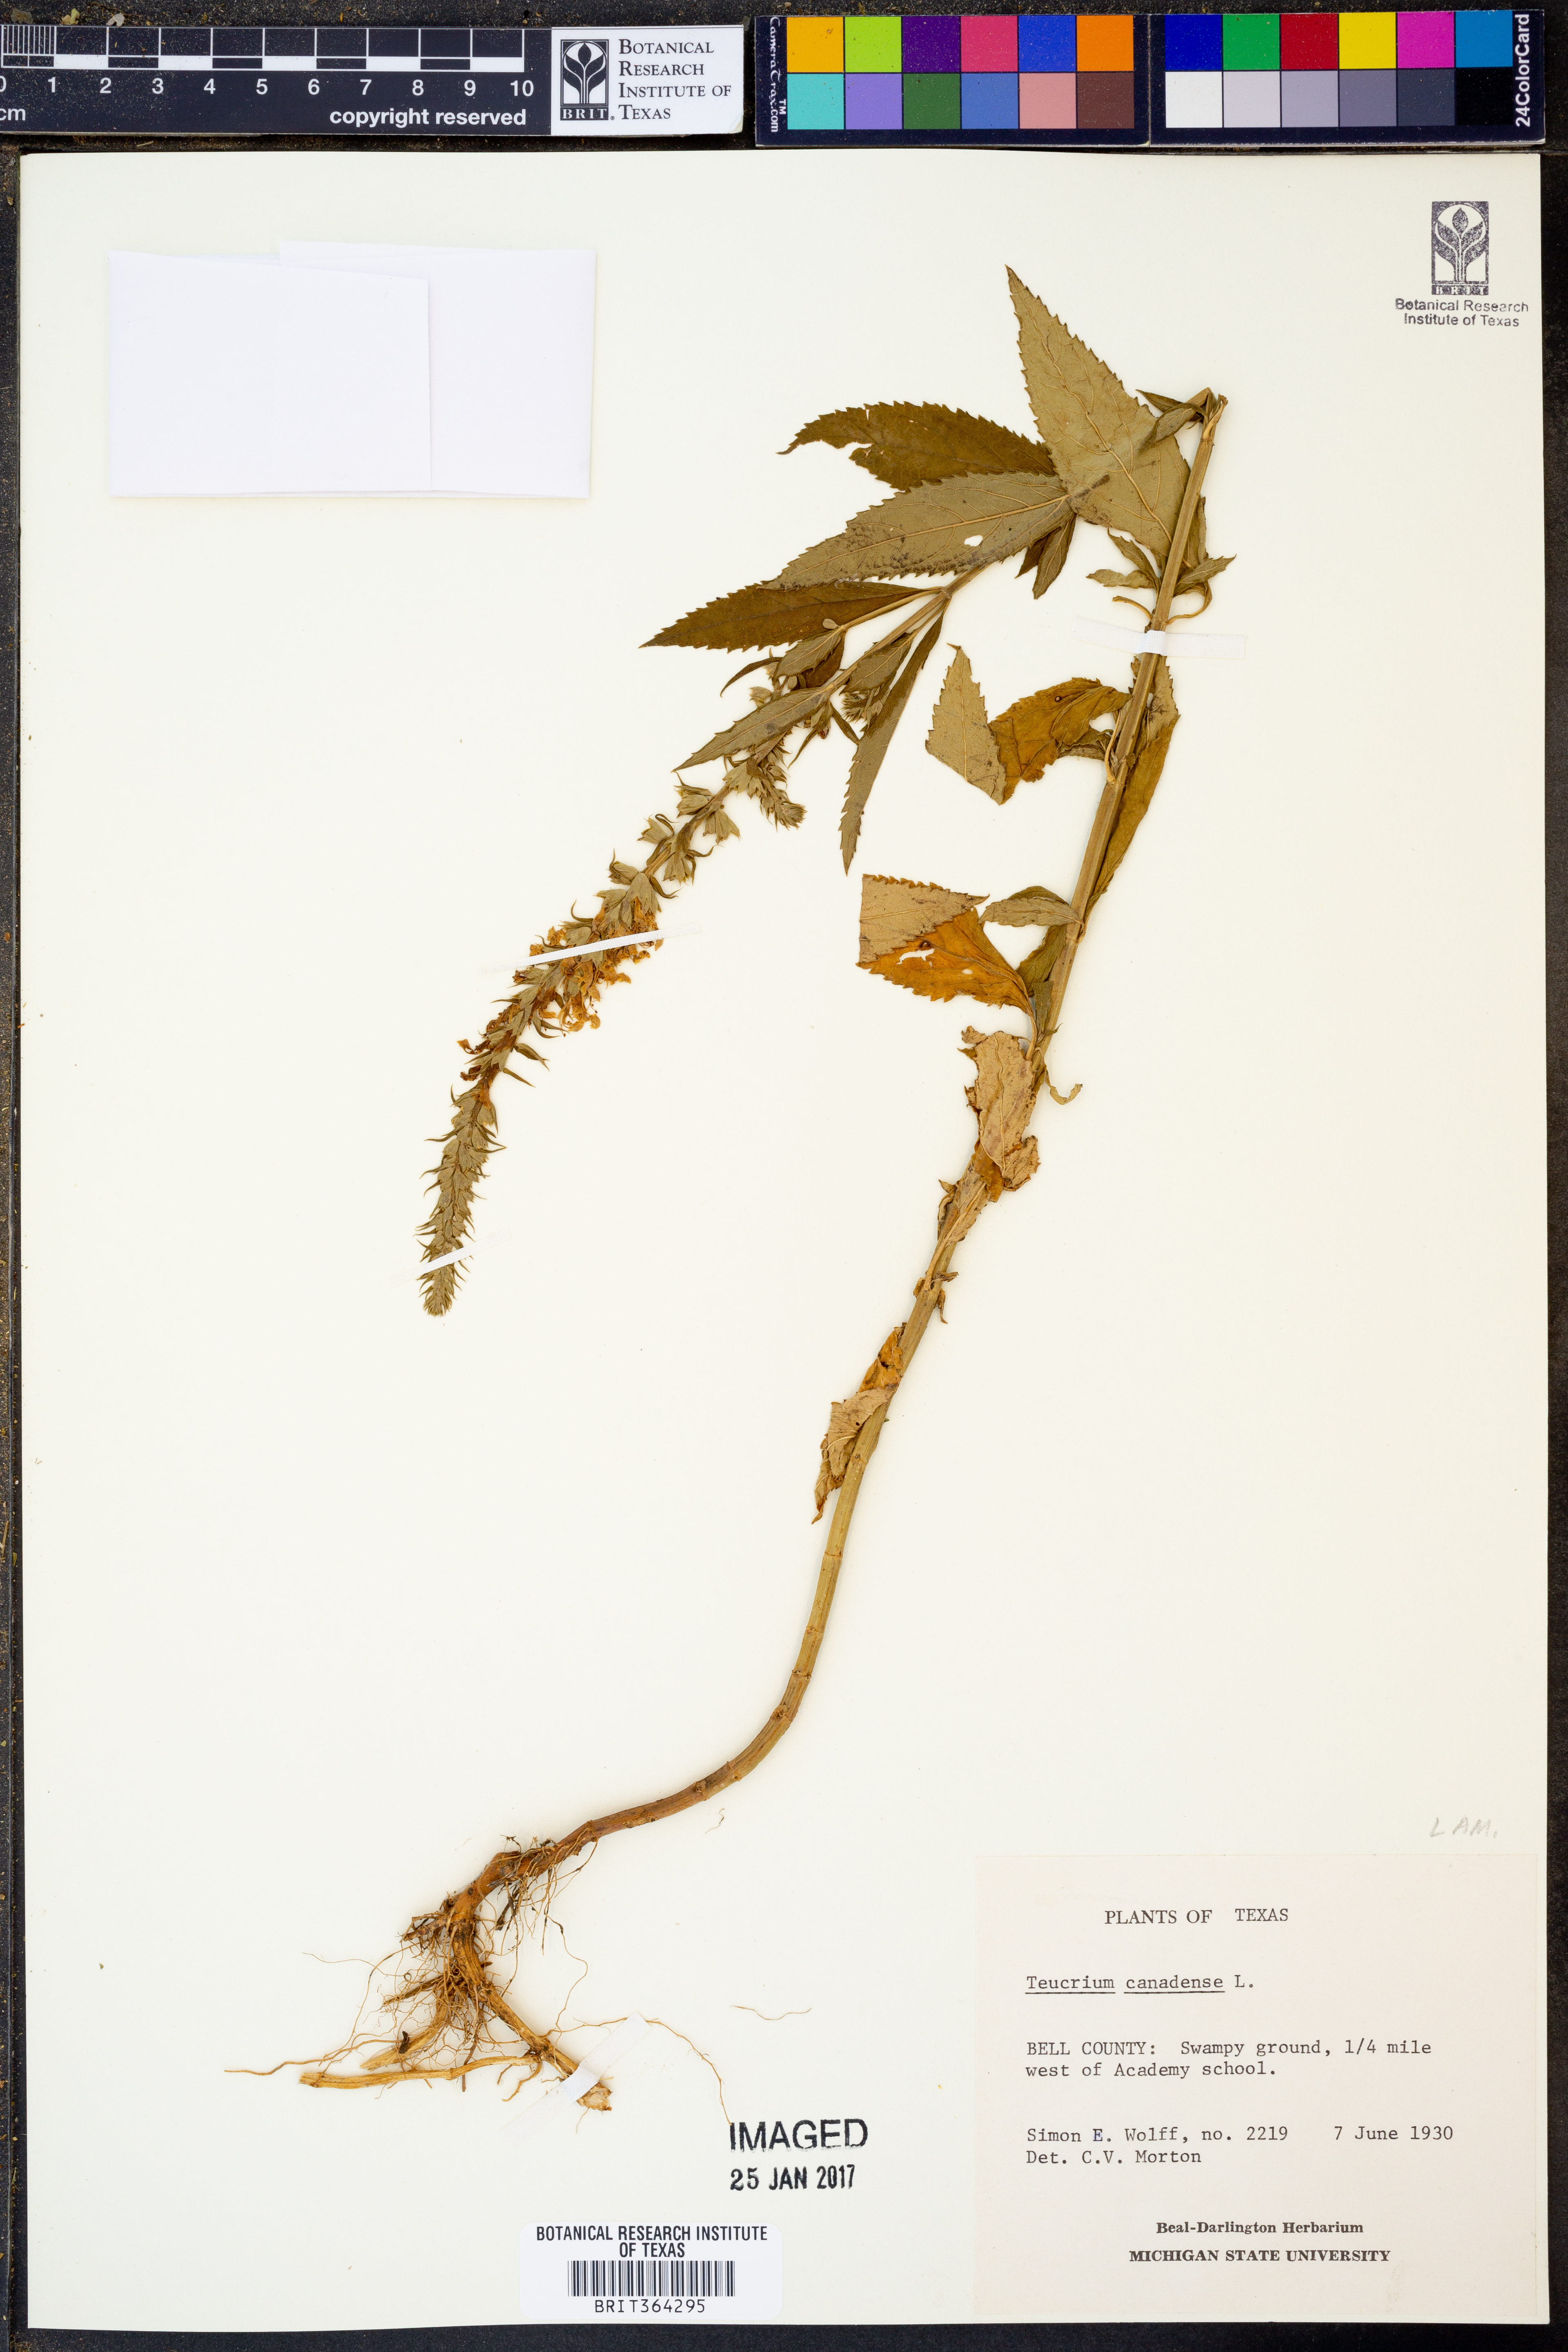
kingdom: Plantae
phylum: Tracheophyta
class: Magnoliopsida
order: Lamiales
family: Lamiaceae
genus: Teucrium
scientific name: Teucrium canadense
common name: American germander
